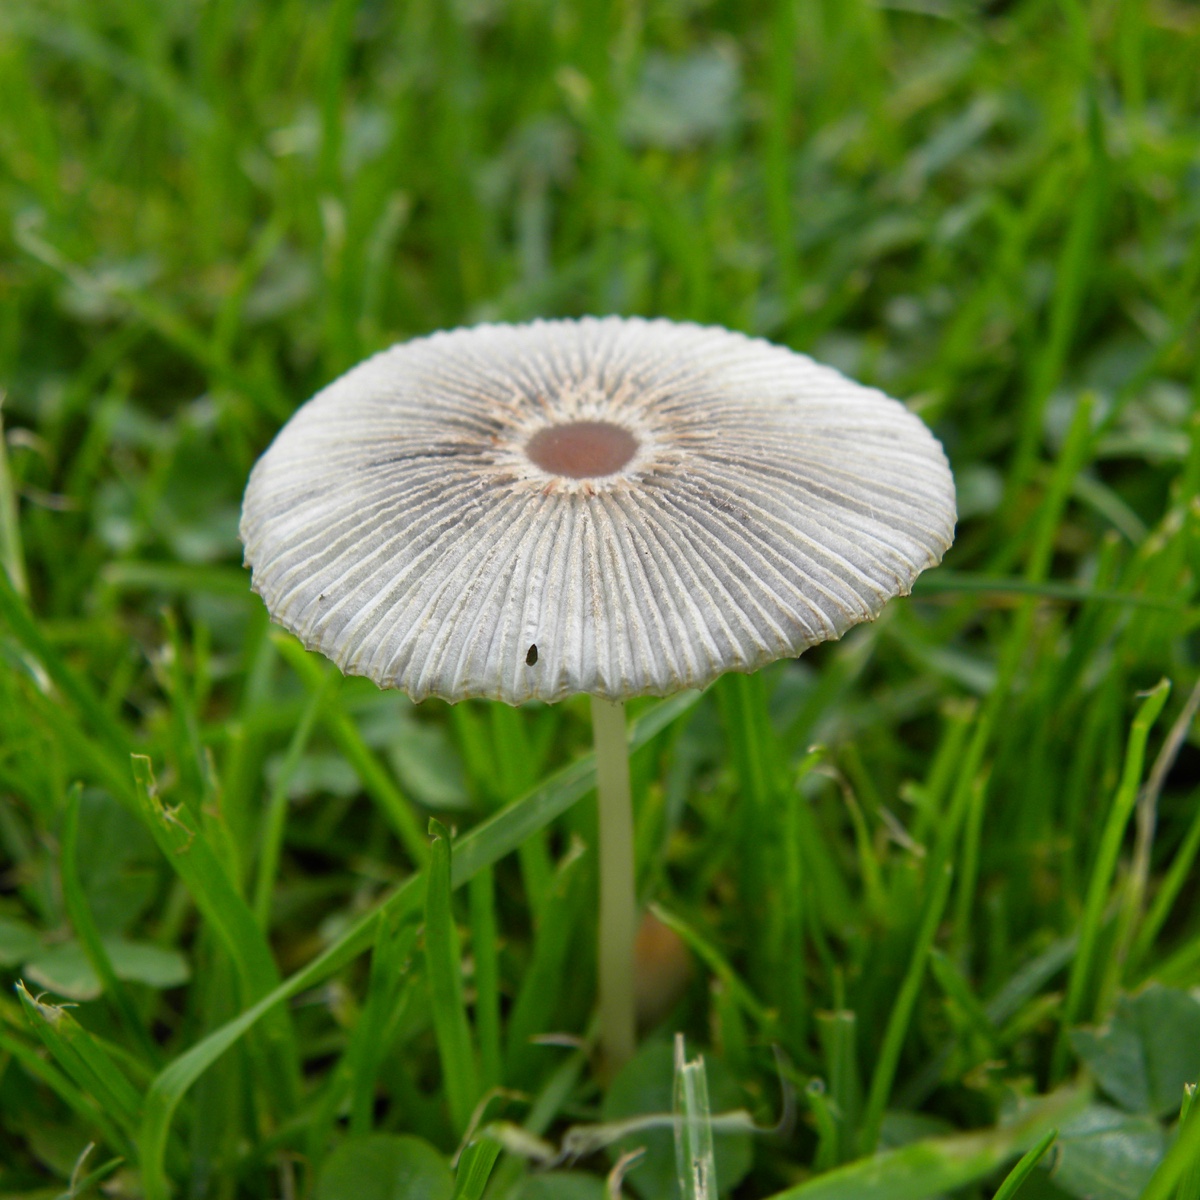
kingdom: Fungi
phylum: Basidiomycota
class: Agaricomycetes
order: Agaricales
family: Psathyrellaceae
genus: Parasola
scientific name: Parasola
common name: hjulhat
